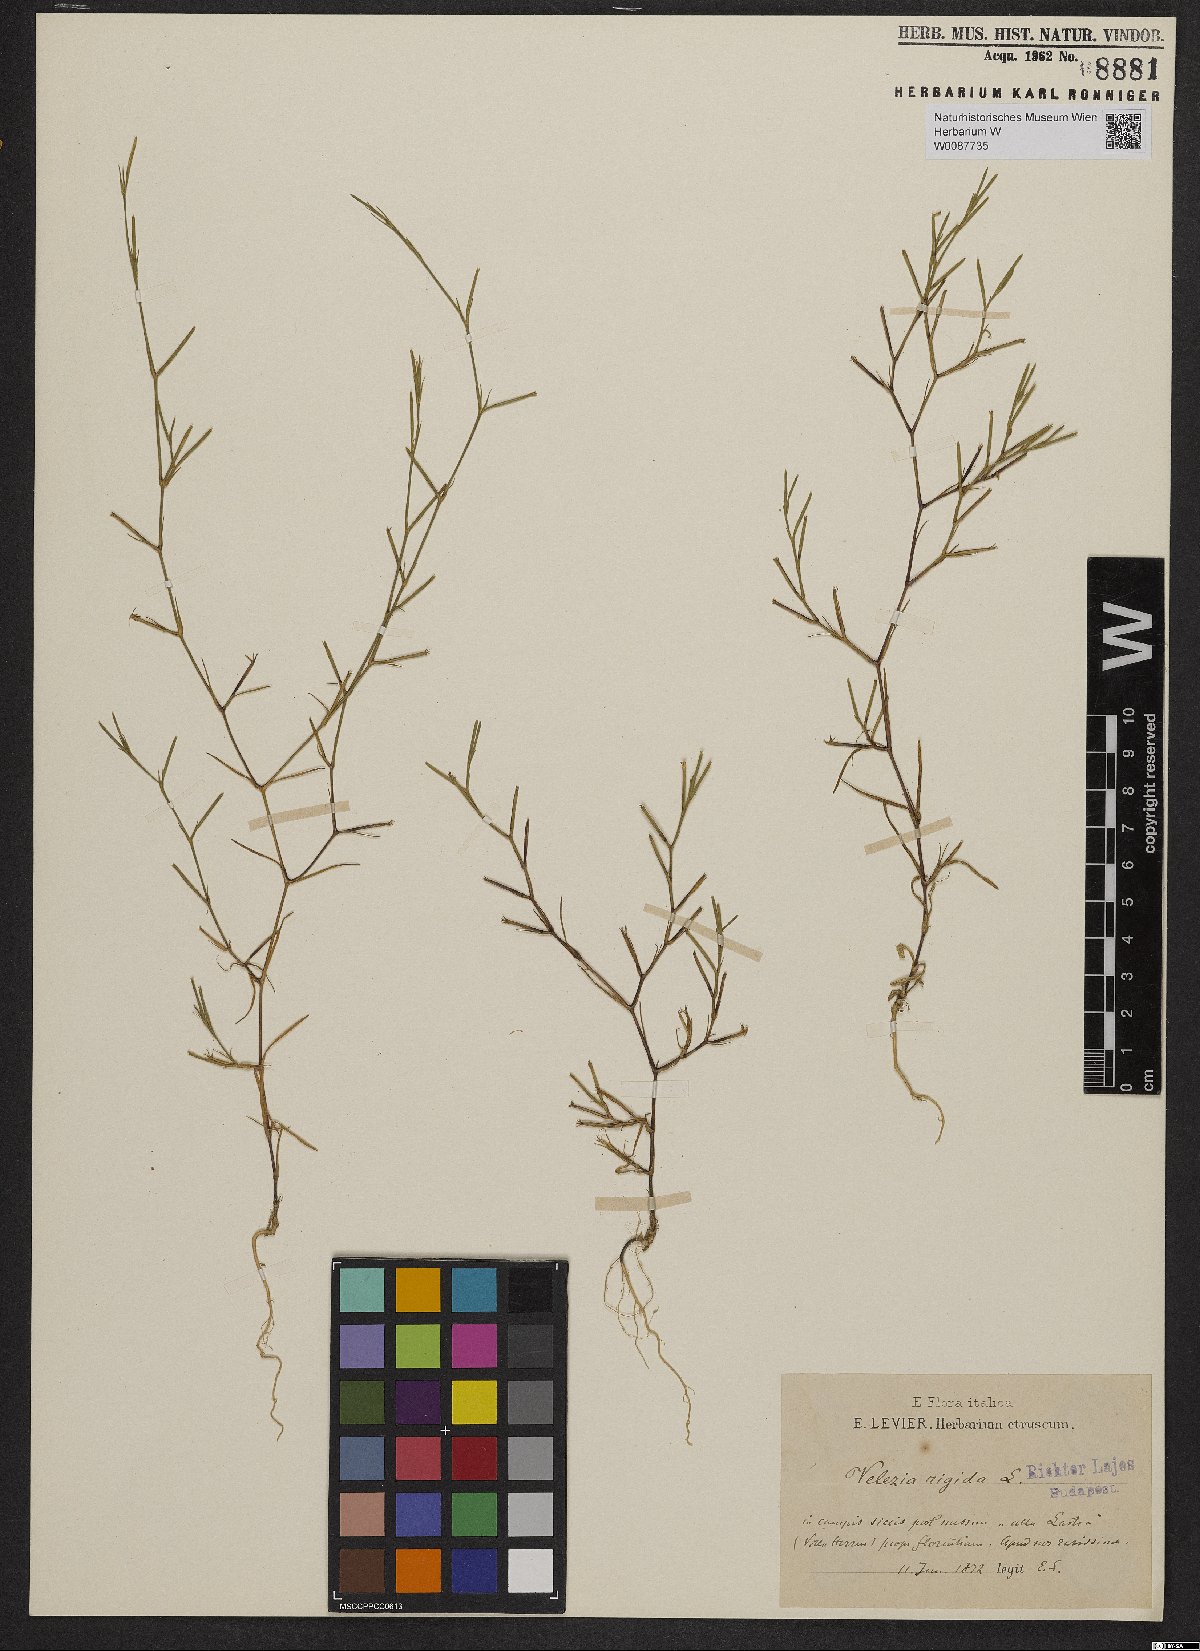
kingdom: Plantae
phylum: Tracheophyta
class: Magnoliopsida
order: Caryophyllales
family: Caryophyllaceae
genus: Dianthus
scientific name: Dianthus nudiflorus
